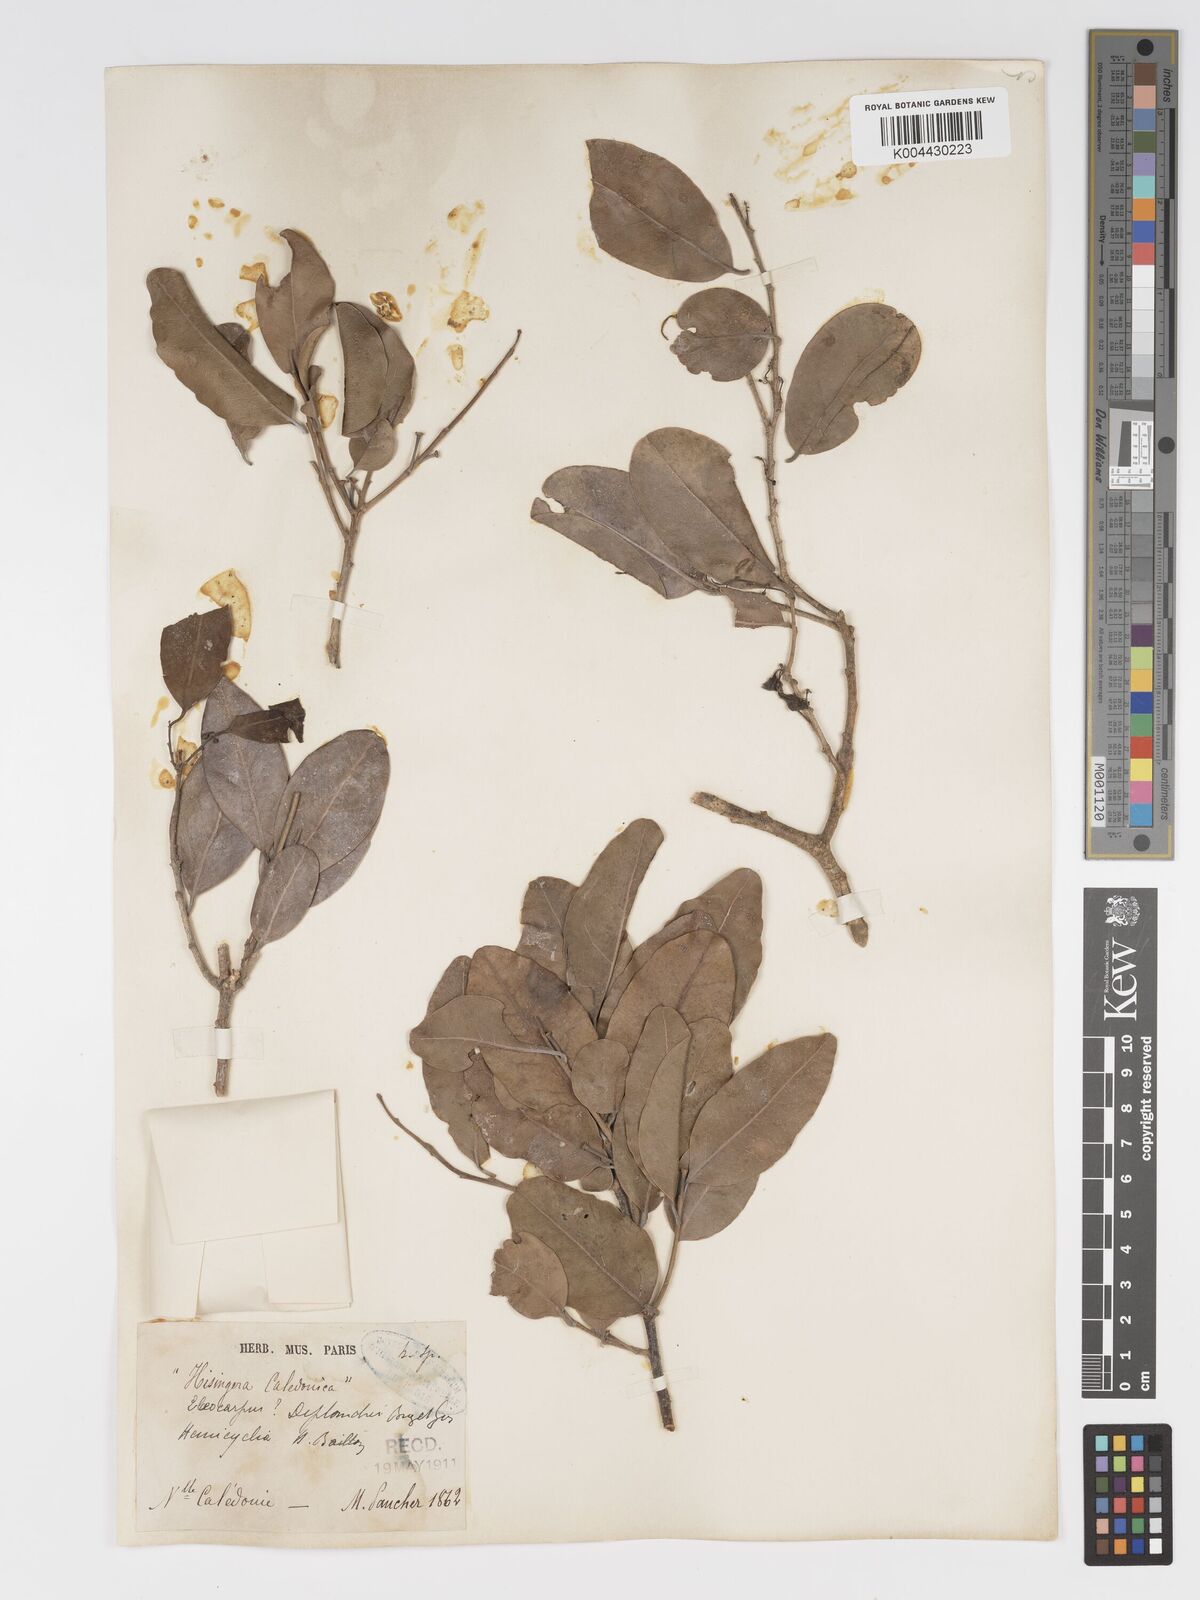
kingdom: Plantae
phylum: Tracheophyta
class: Magnoliopsida
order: Malpighiales
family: Putranjivaceae
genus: Drypetes
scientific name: Drypetes deplanchei
